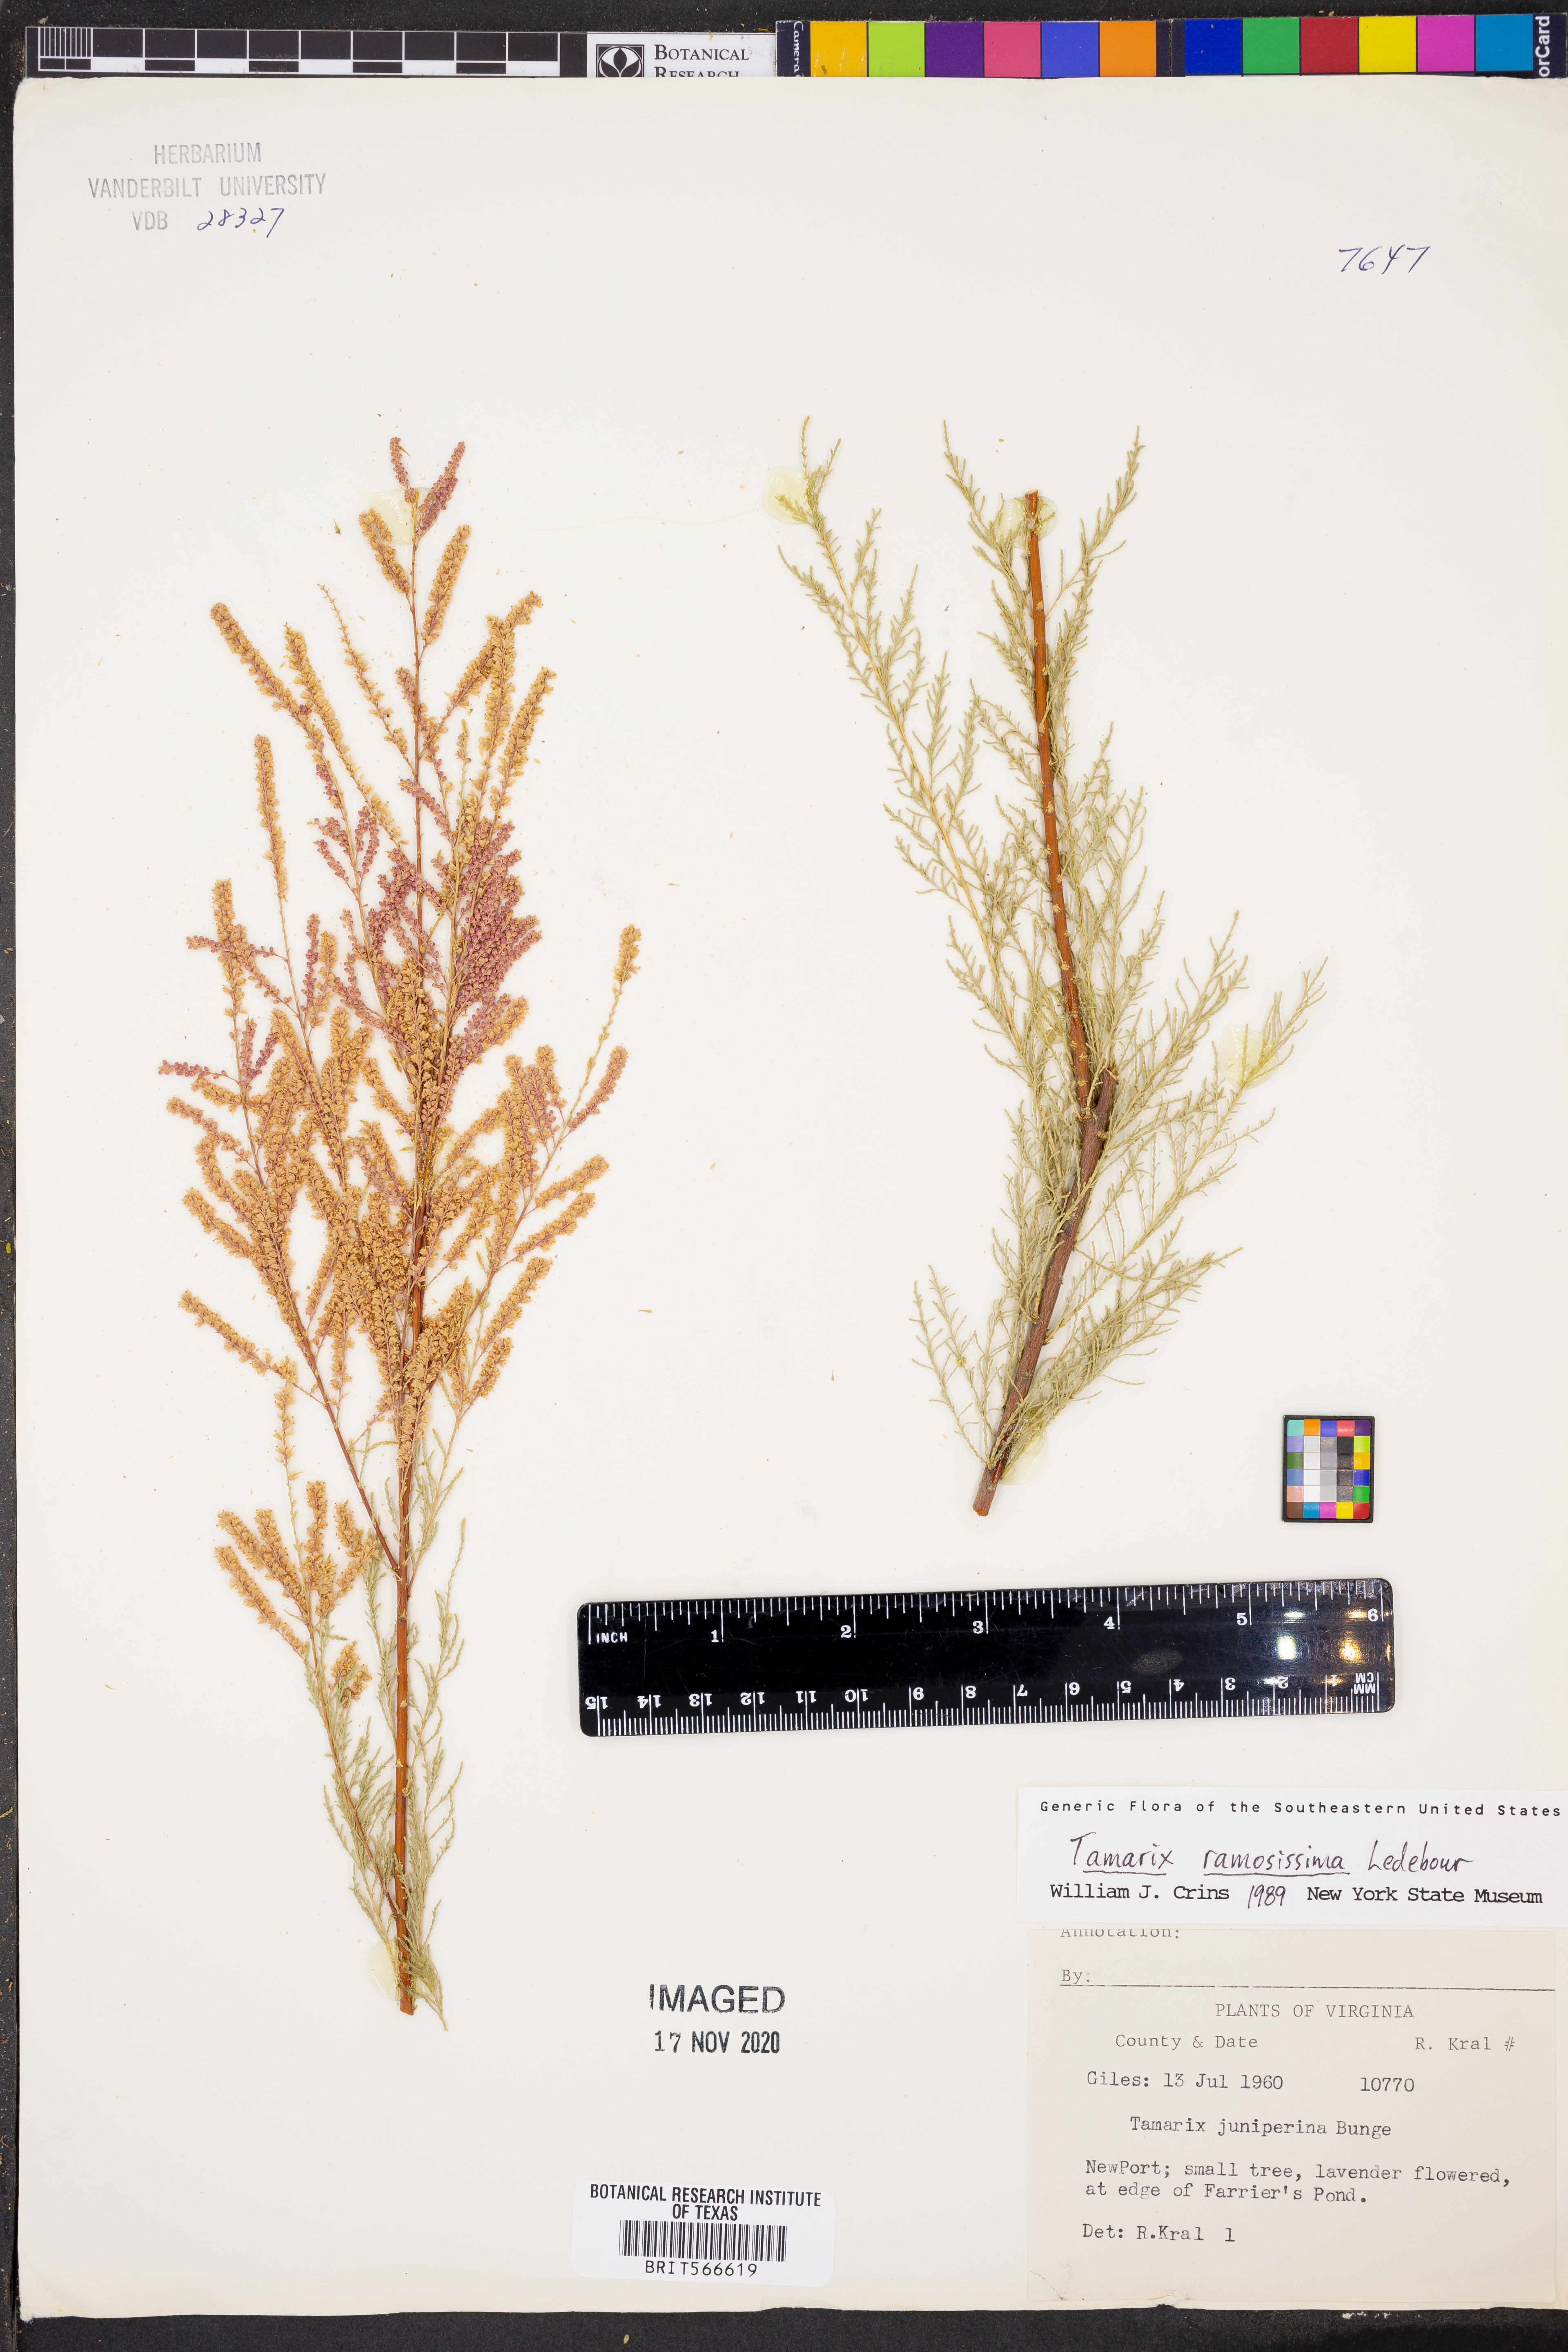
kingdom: Plantae
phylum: Tracheophyta
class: Magnoliopsida
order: Caryophyllales
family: Tamaricaceae
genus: Tamarix
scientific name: Tamarix ramosissima
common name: Pink tamarisk
